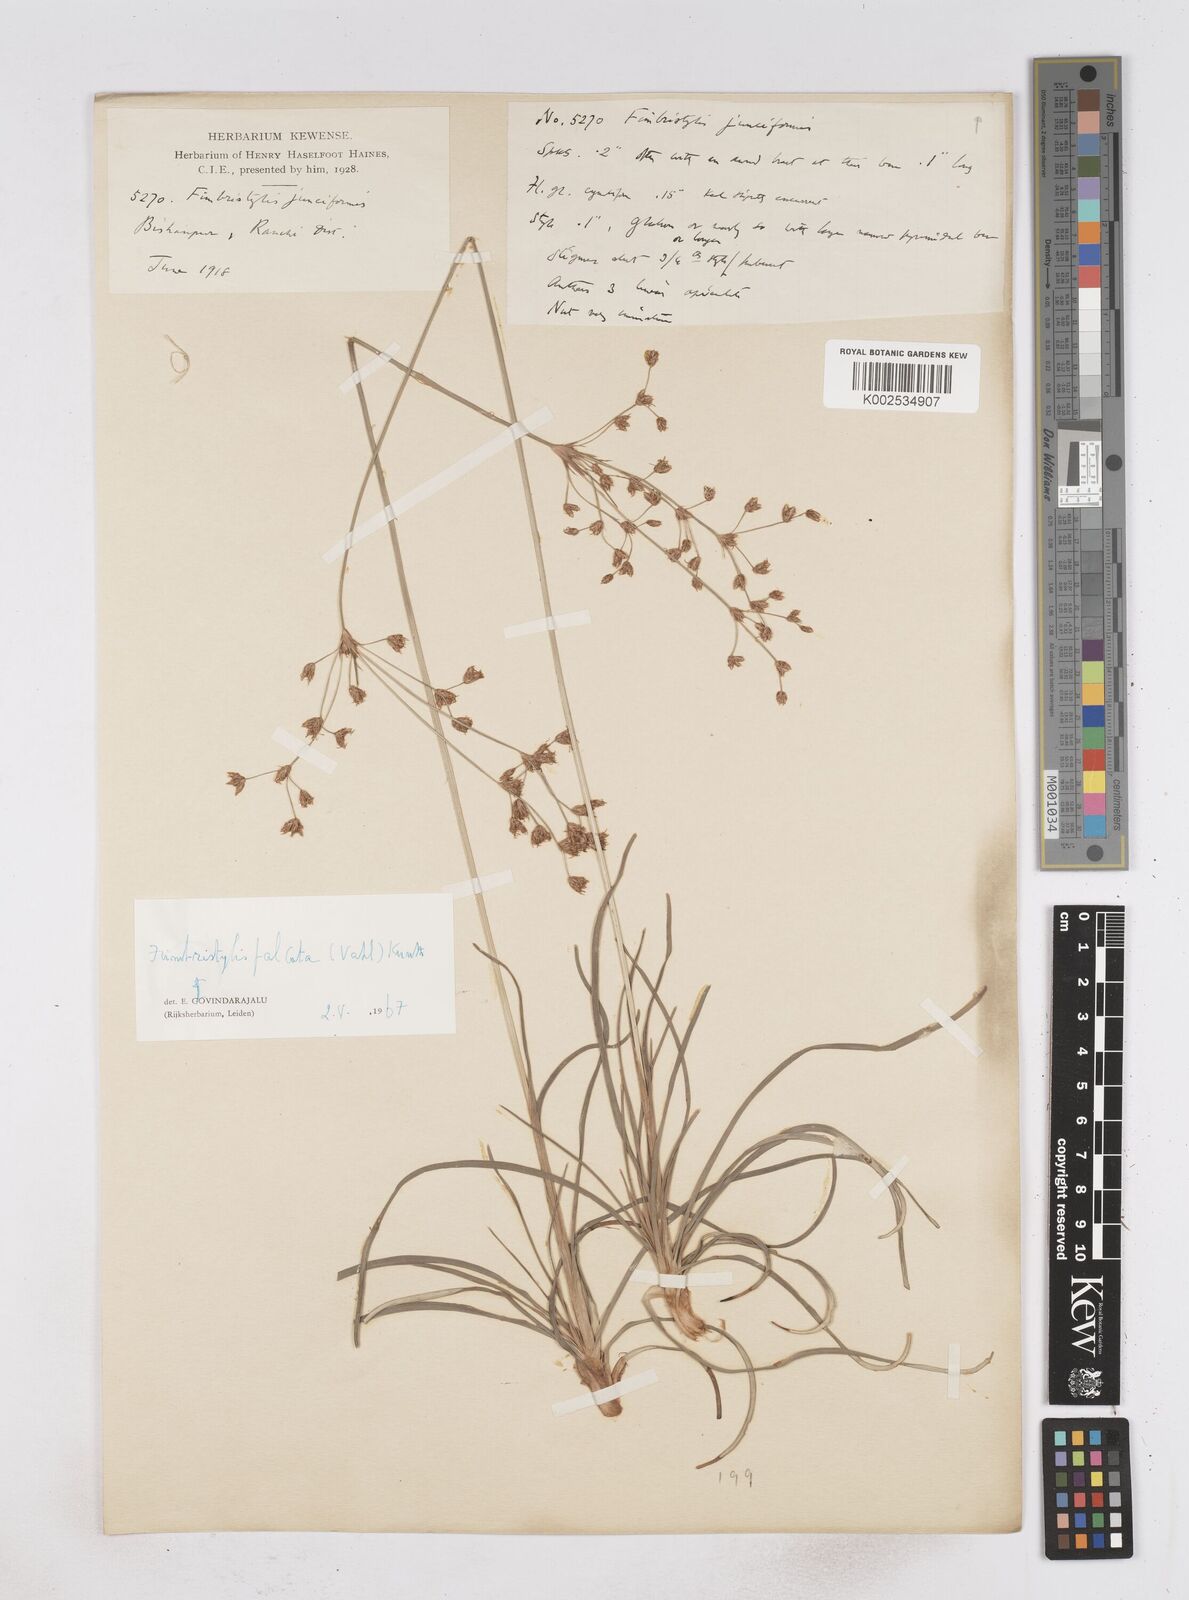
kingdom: Plantae
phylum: Tracheophyta
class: Liliopsida
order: Poales
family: Cyperaceae
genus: Fimbristylis
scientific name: Fimbristylis falcata
